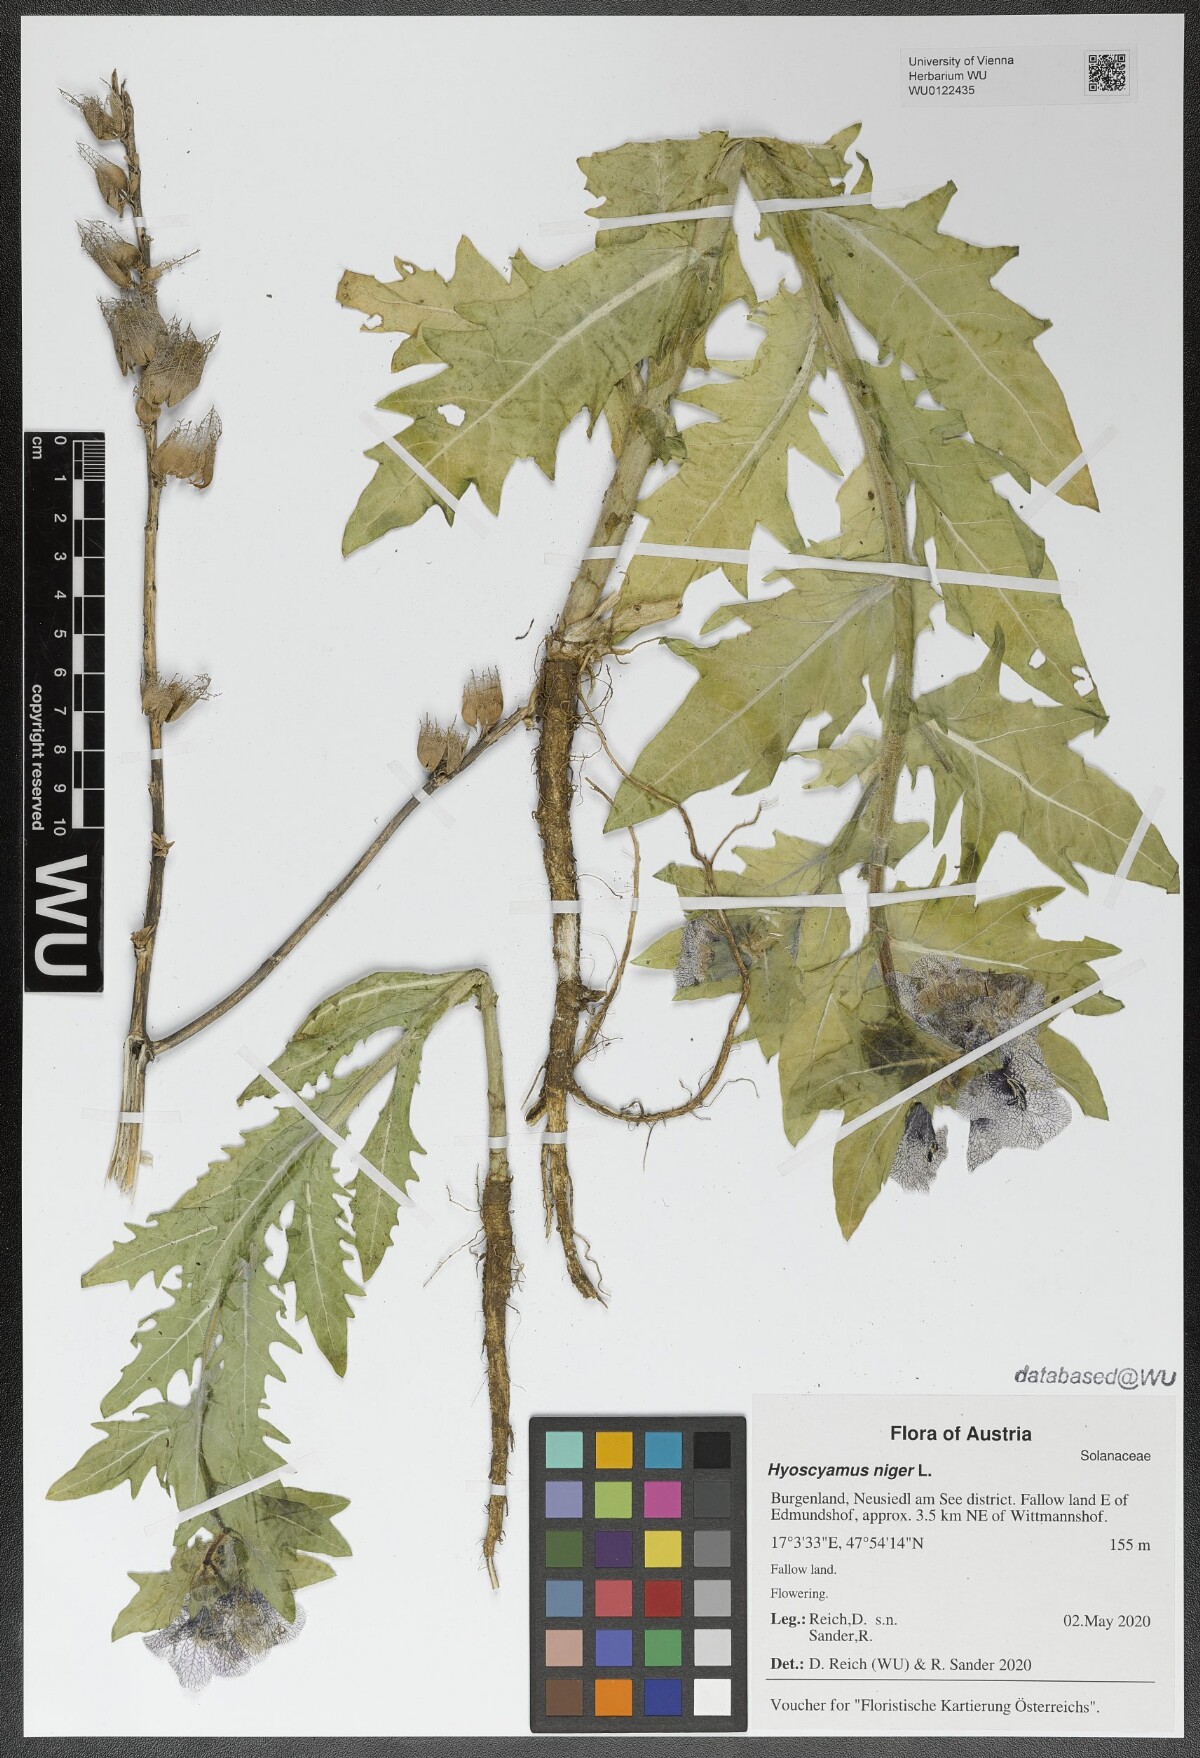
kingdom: Plantae
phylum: Tracheophyta
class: Magnoliopsida
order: Solanales
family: Solanaceae
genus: Hyoscyamus
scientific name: Hyoscyamus niger
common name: Henbane
